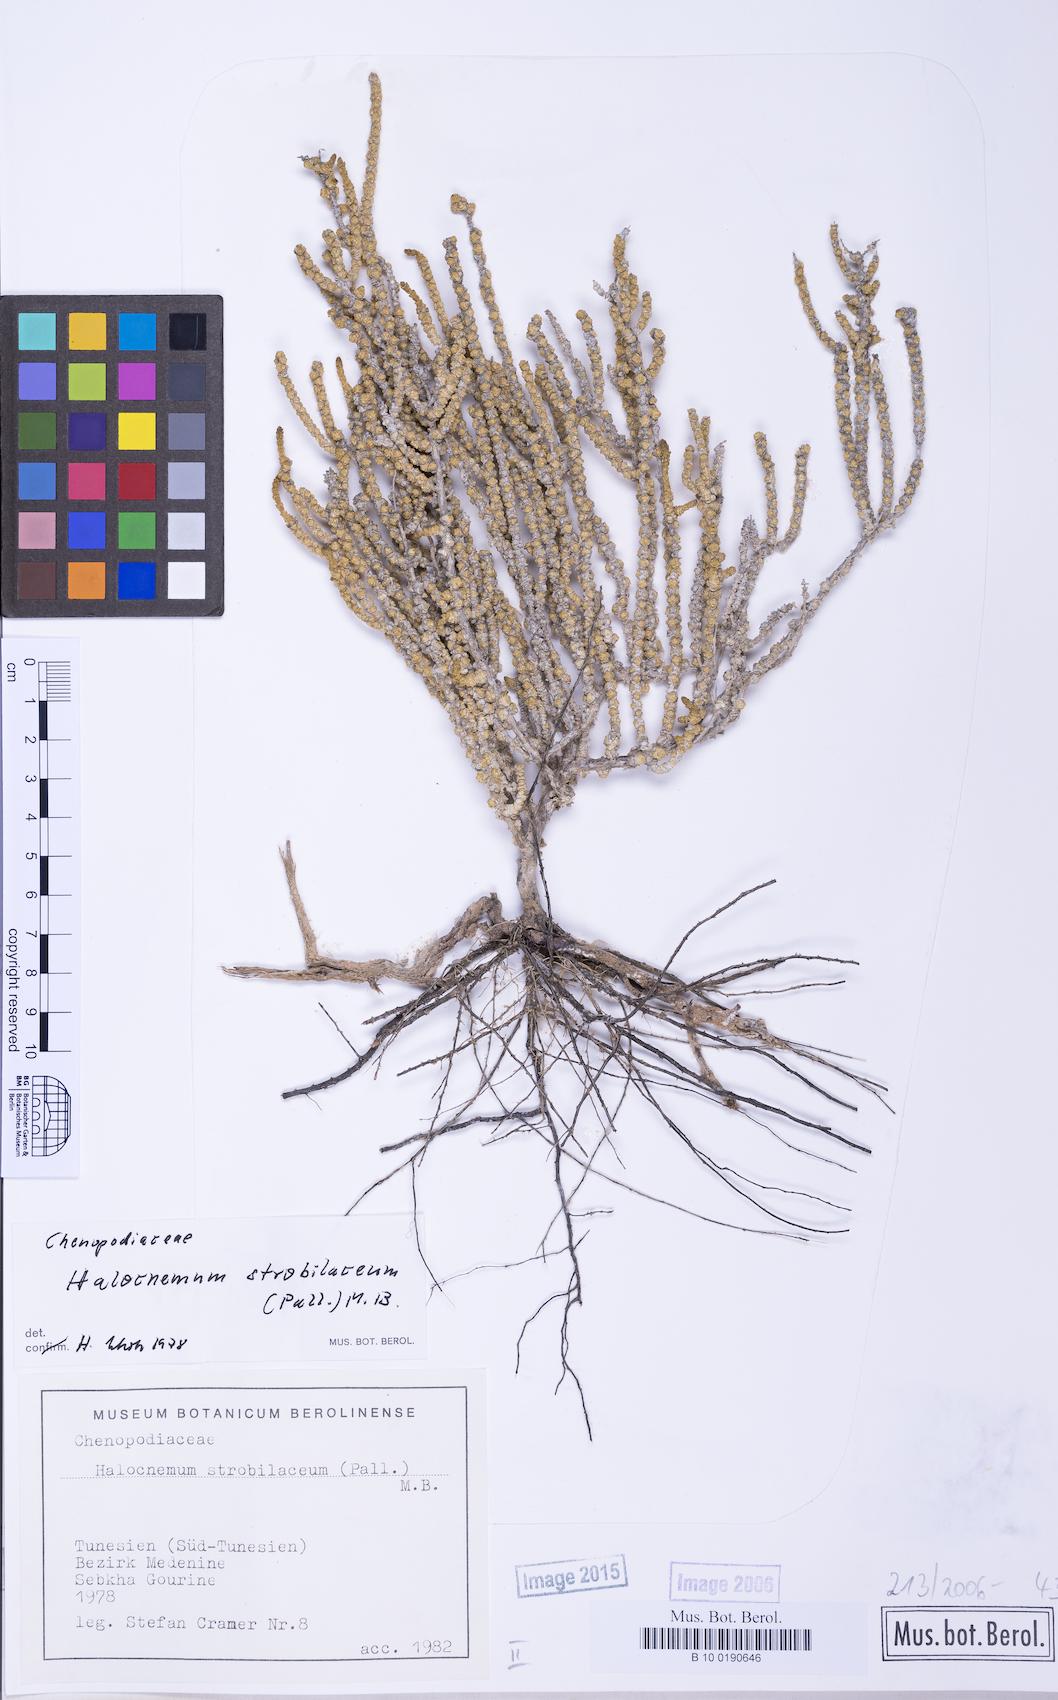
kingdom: Plantae
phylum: Tracheophyta
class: Magnoliopsida
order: Caryophyllales
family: Amaranthaceae
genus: Halocnemum
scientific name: Halocnemum strobilaceum
